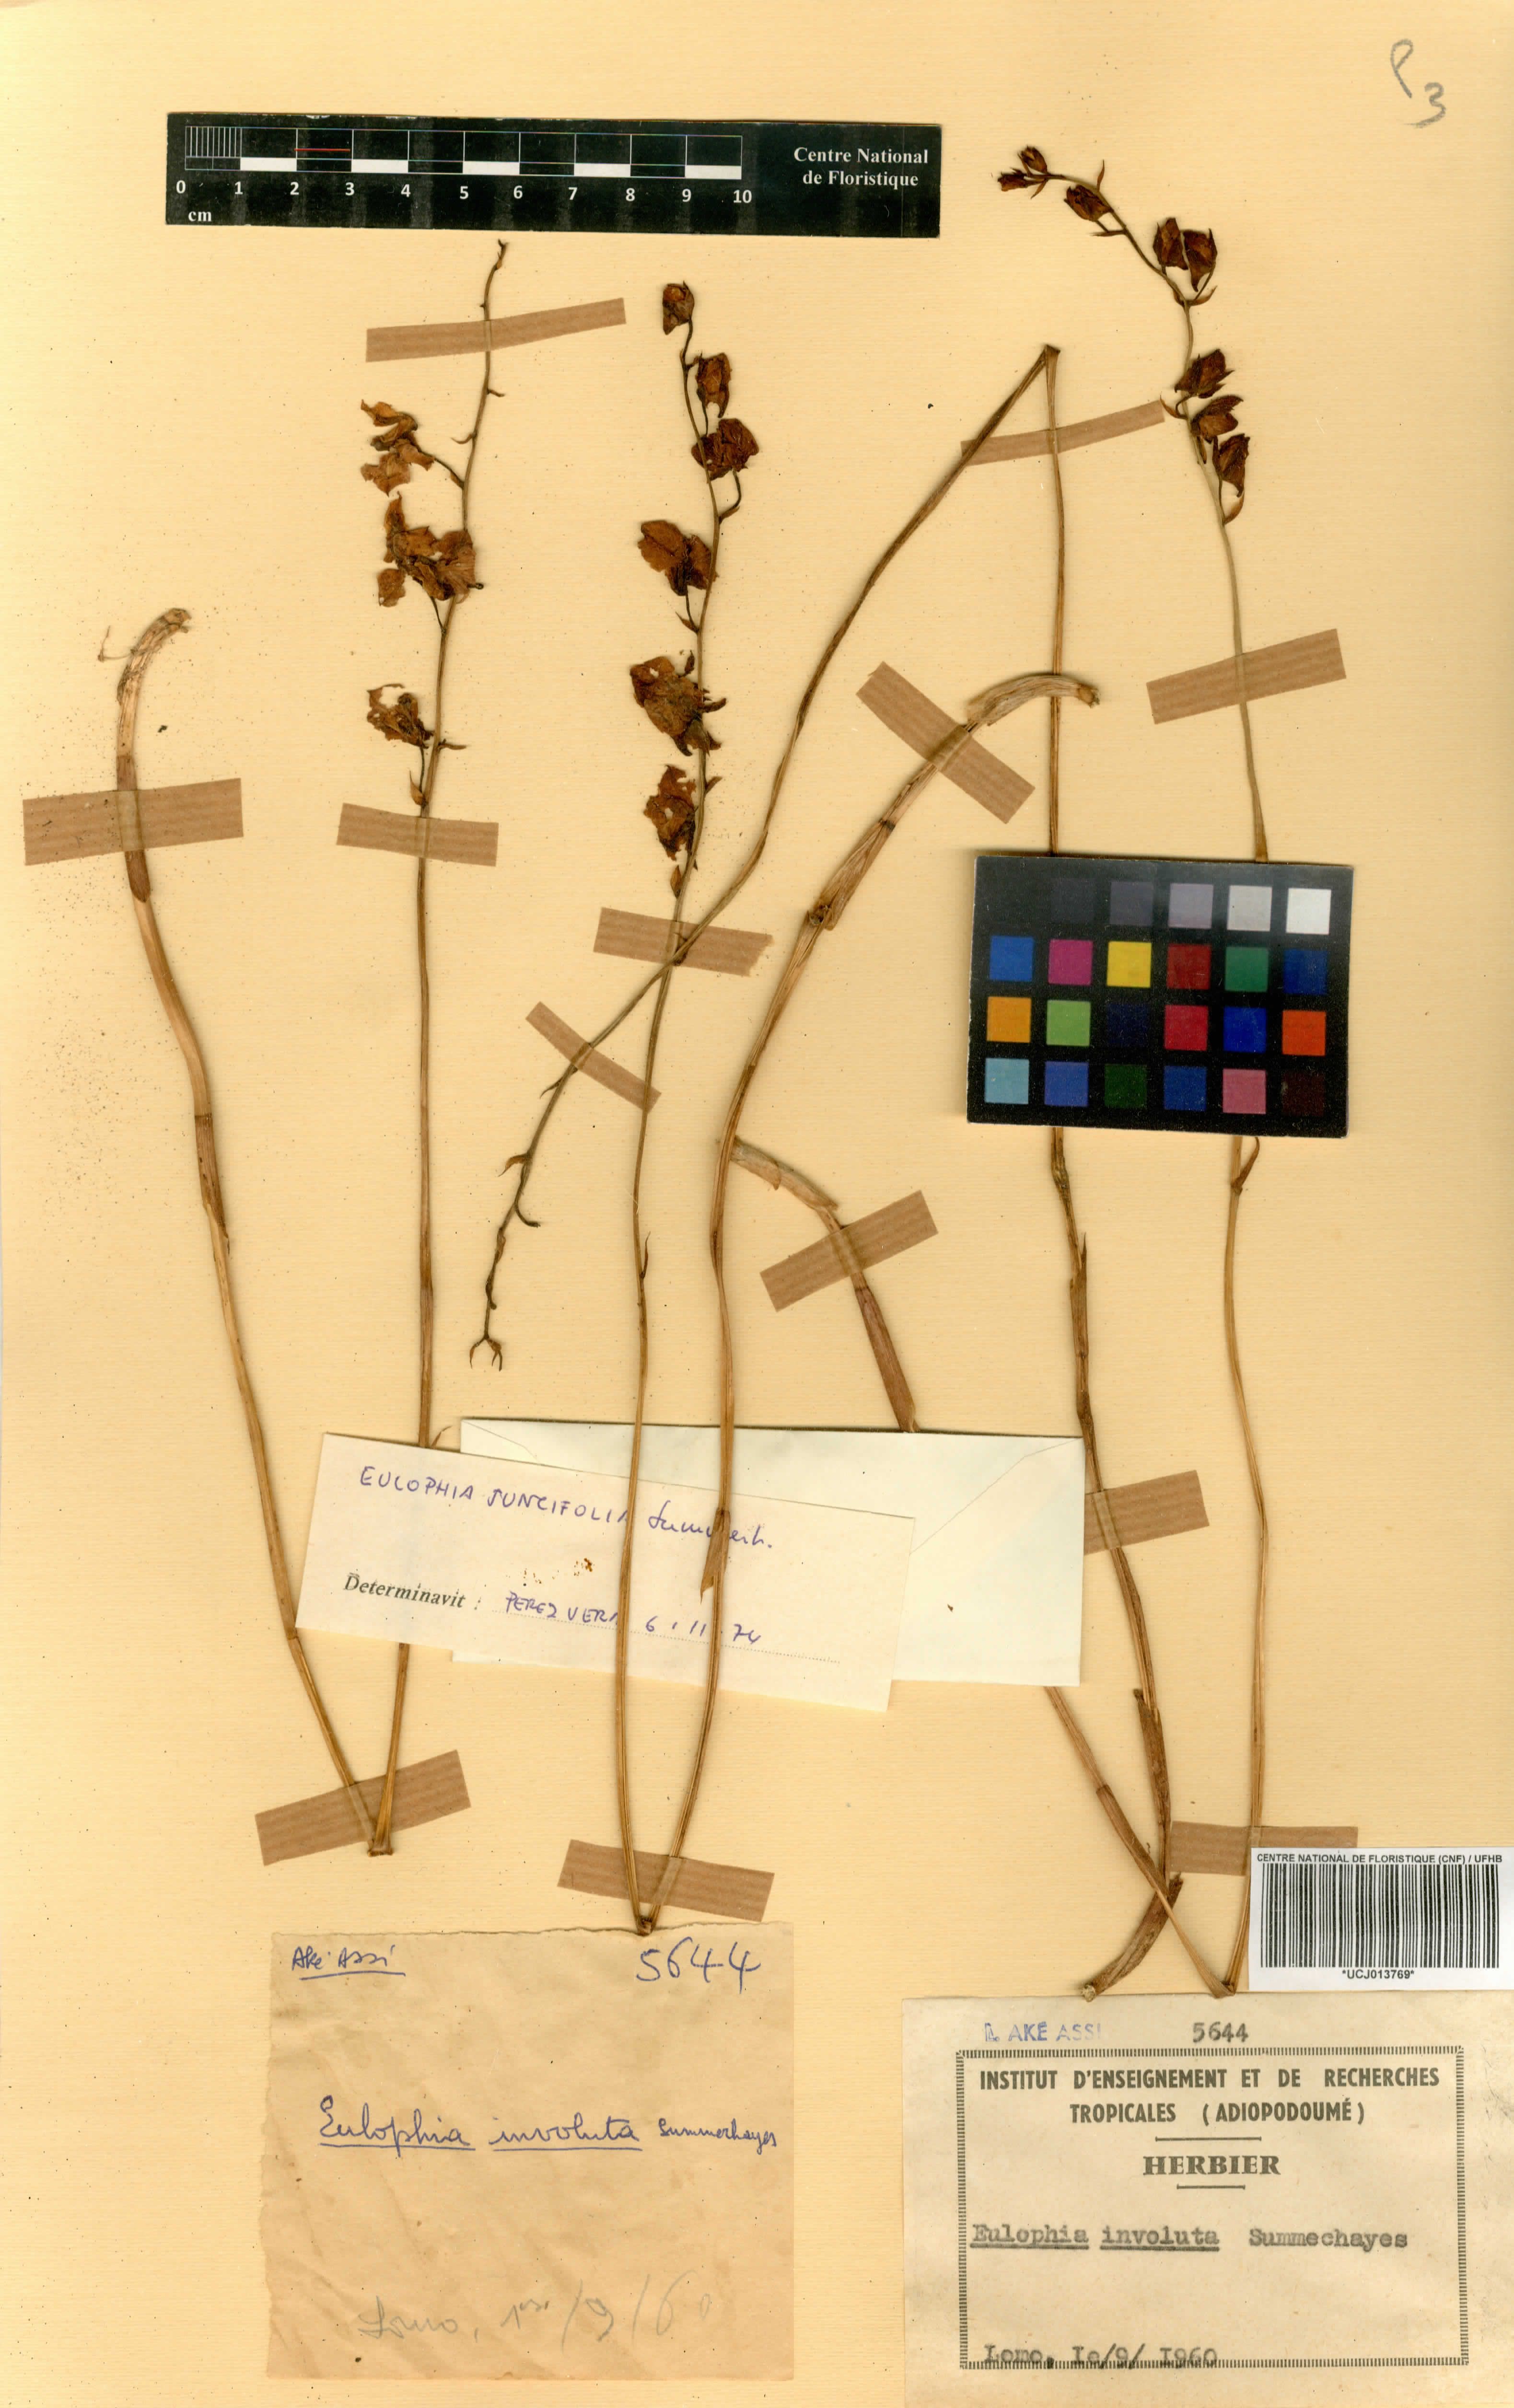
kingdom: Plantae
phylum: Tracheophyta
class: Liliopsida
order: Asparagales
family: Orchidaceae
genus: Eulophia
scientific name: Eulophia schweinfurthii
